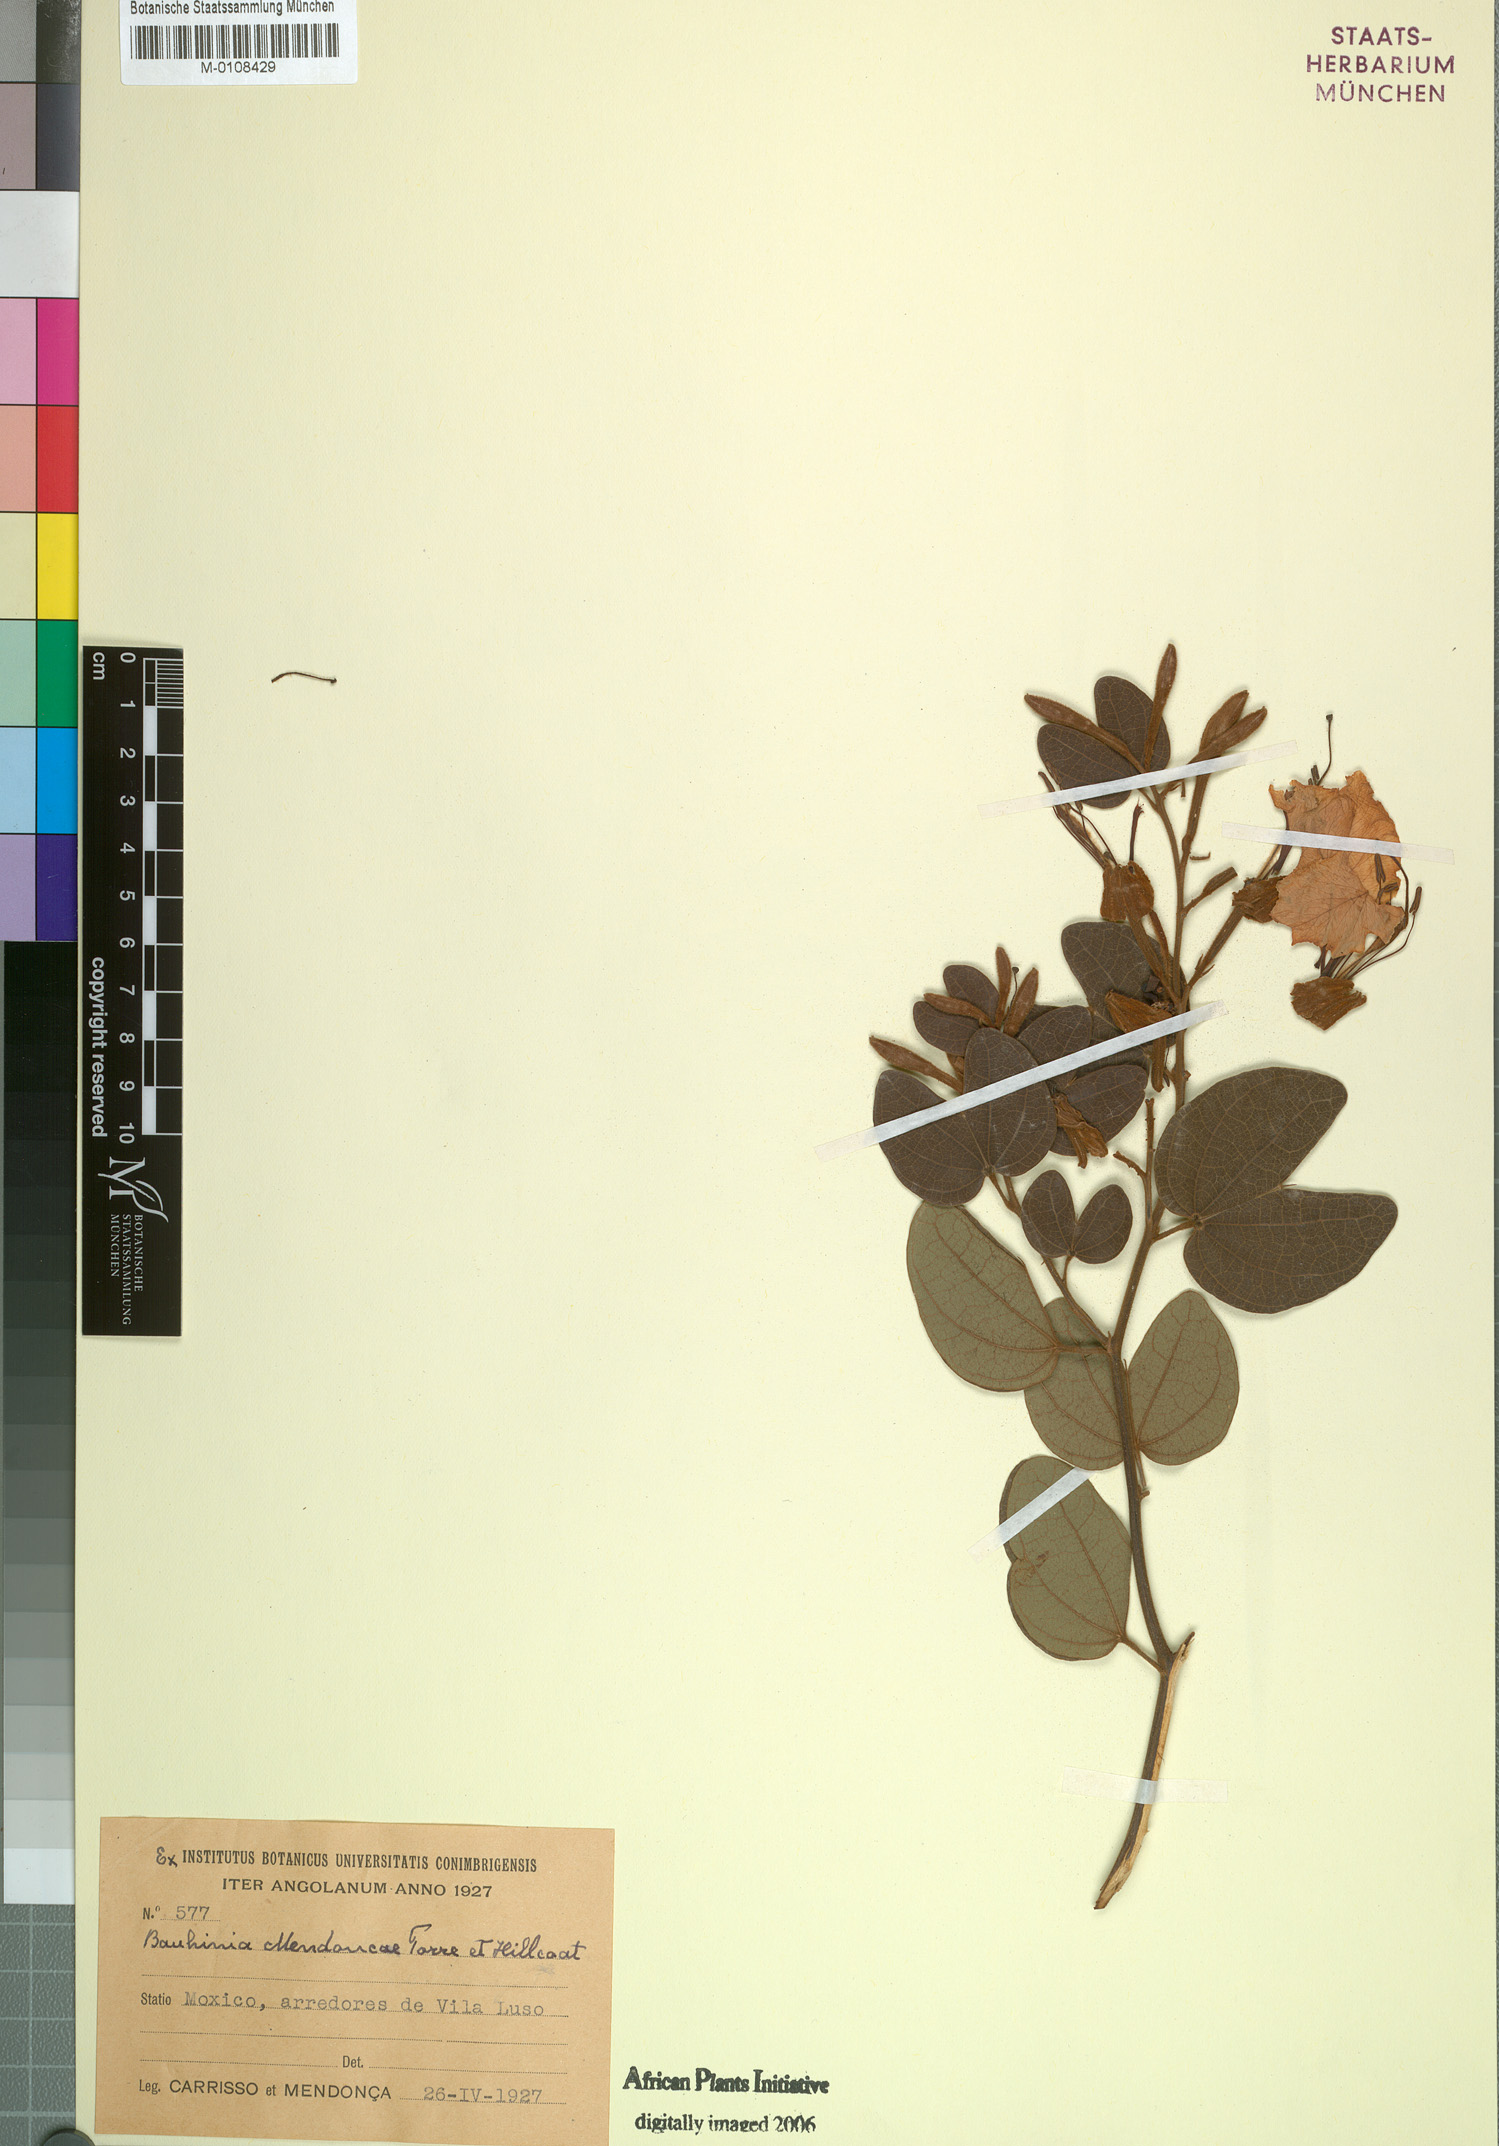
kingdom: Plantae
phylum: Tracheophyta
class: Magnoliopsida
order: Fabales
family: Fabaceae
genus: Bauhinia
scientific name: Bauhinia mendoncae
